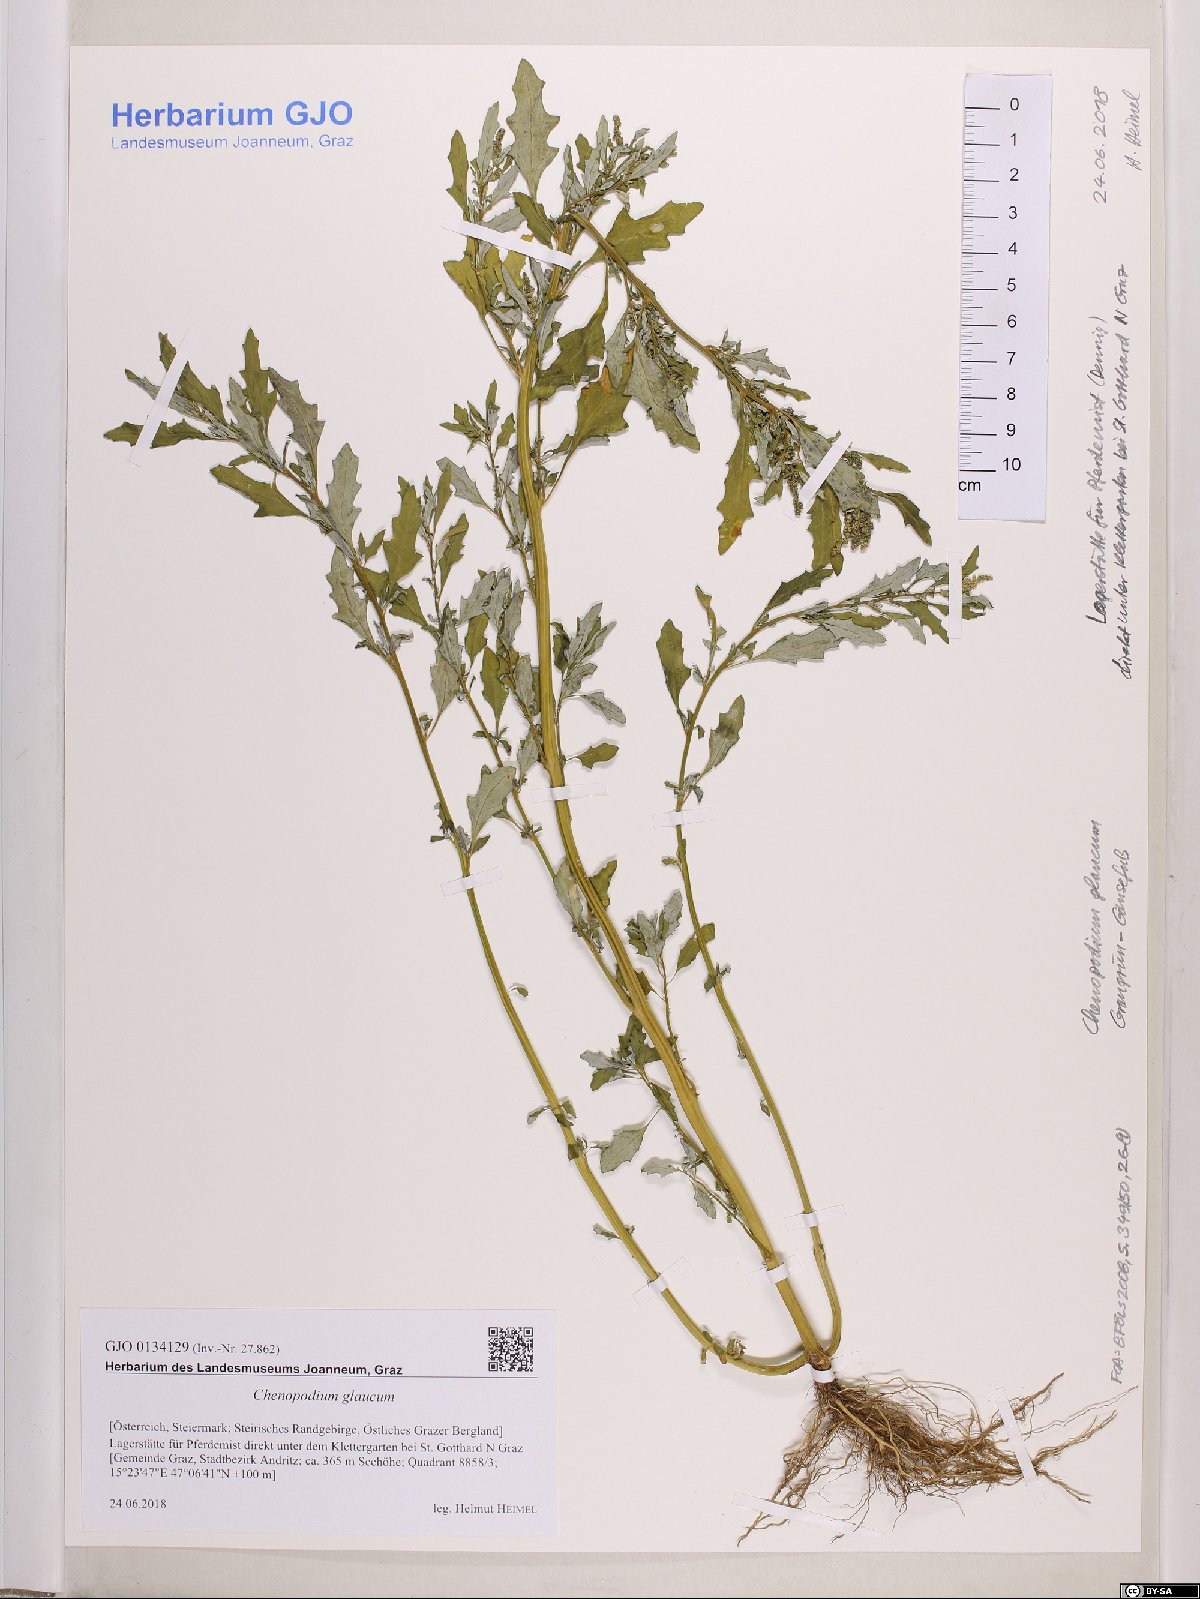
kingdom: Plantae
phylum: Tracheophyta
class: Magnoliopsida
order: Caryophyllales
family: Amaranthaceae
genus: Oxybasis
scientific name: Oxybasis glauca
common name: Glaucous goosefoot
